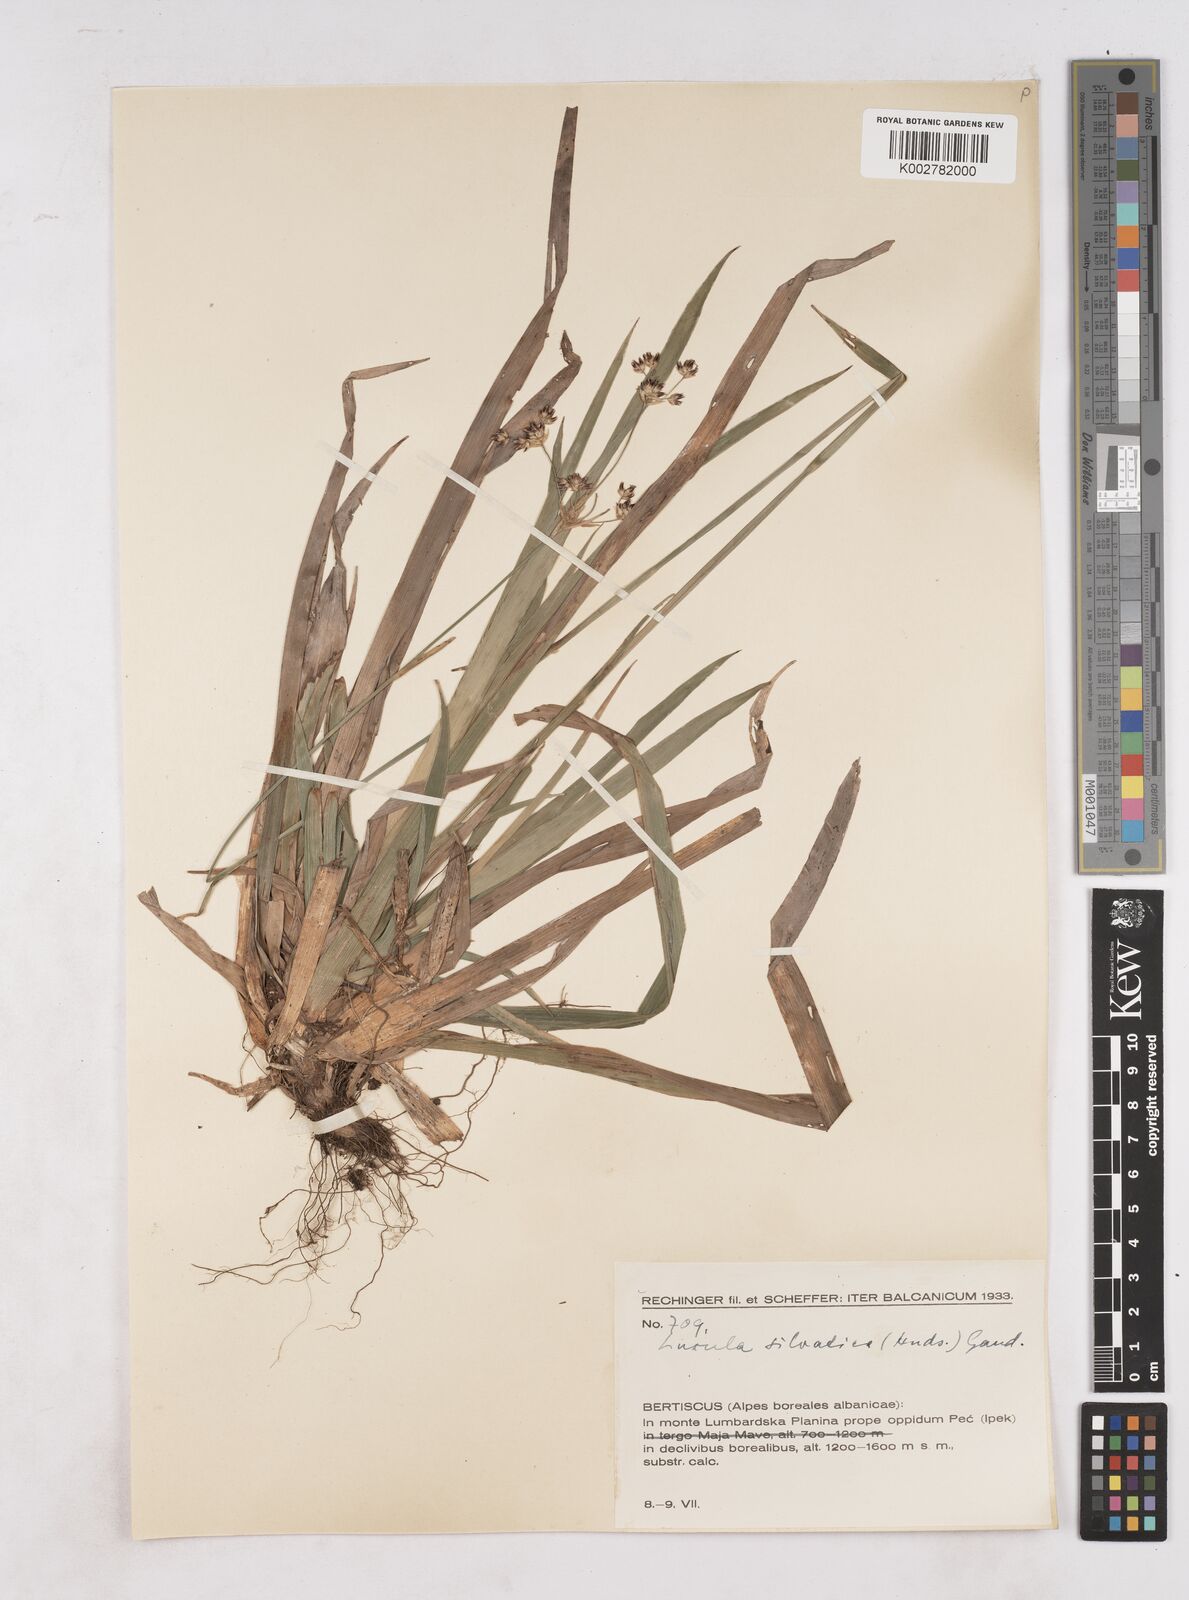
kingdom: Plantae
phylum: Tracheophyta
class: Liliopsida
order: Poales
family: Juncaceae
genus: Luzula
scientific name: Luzula sylvatica
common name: Great wood-rush
